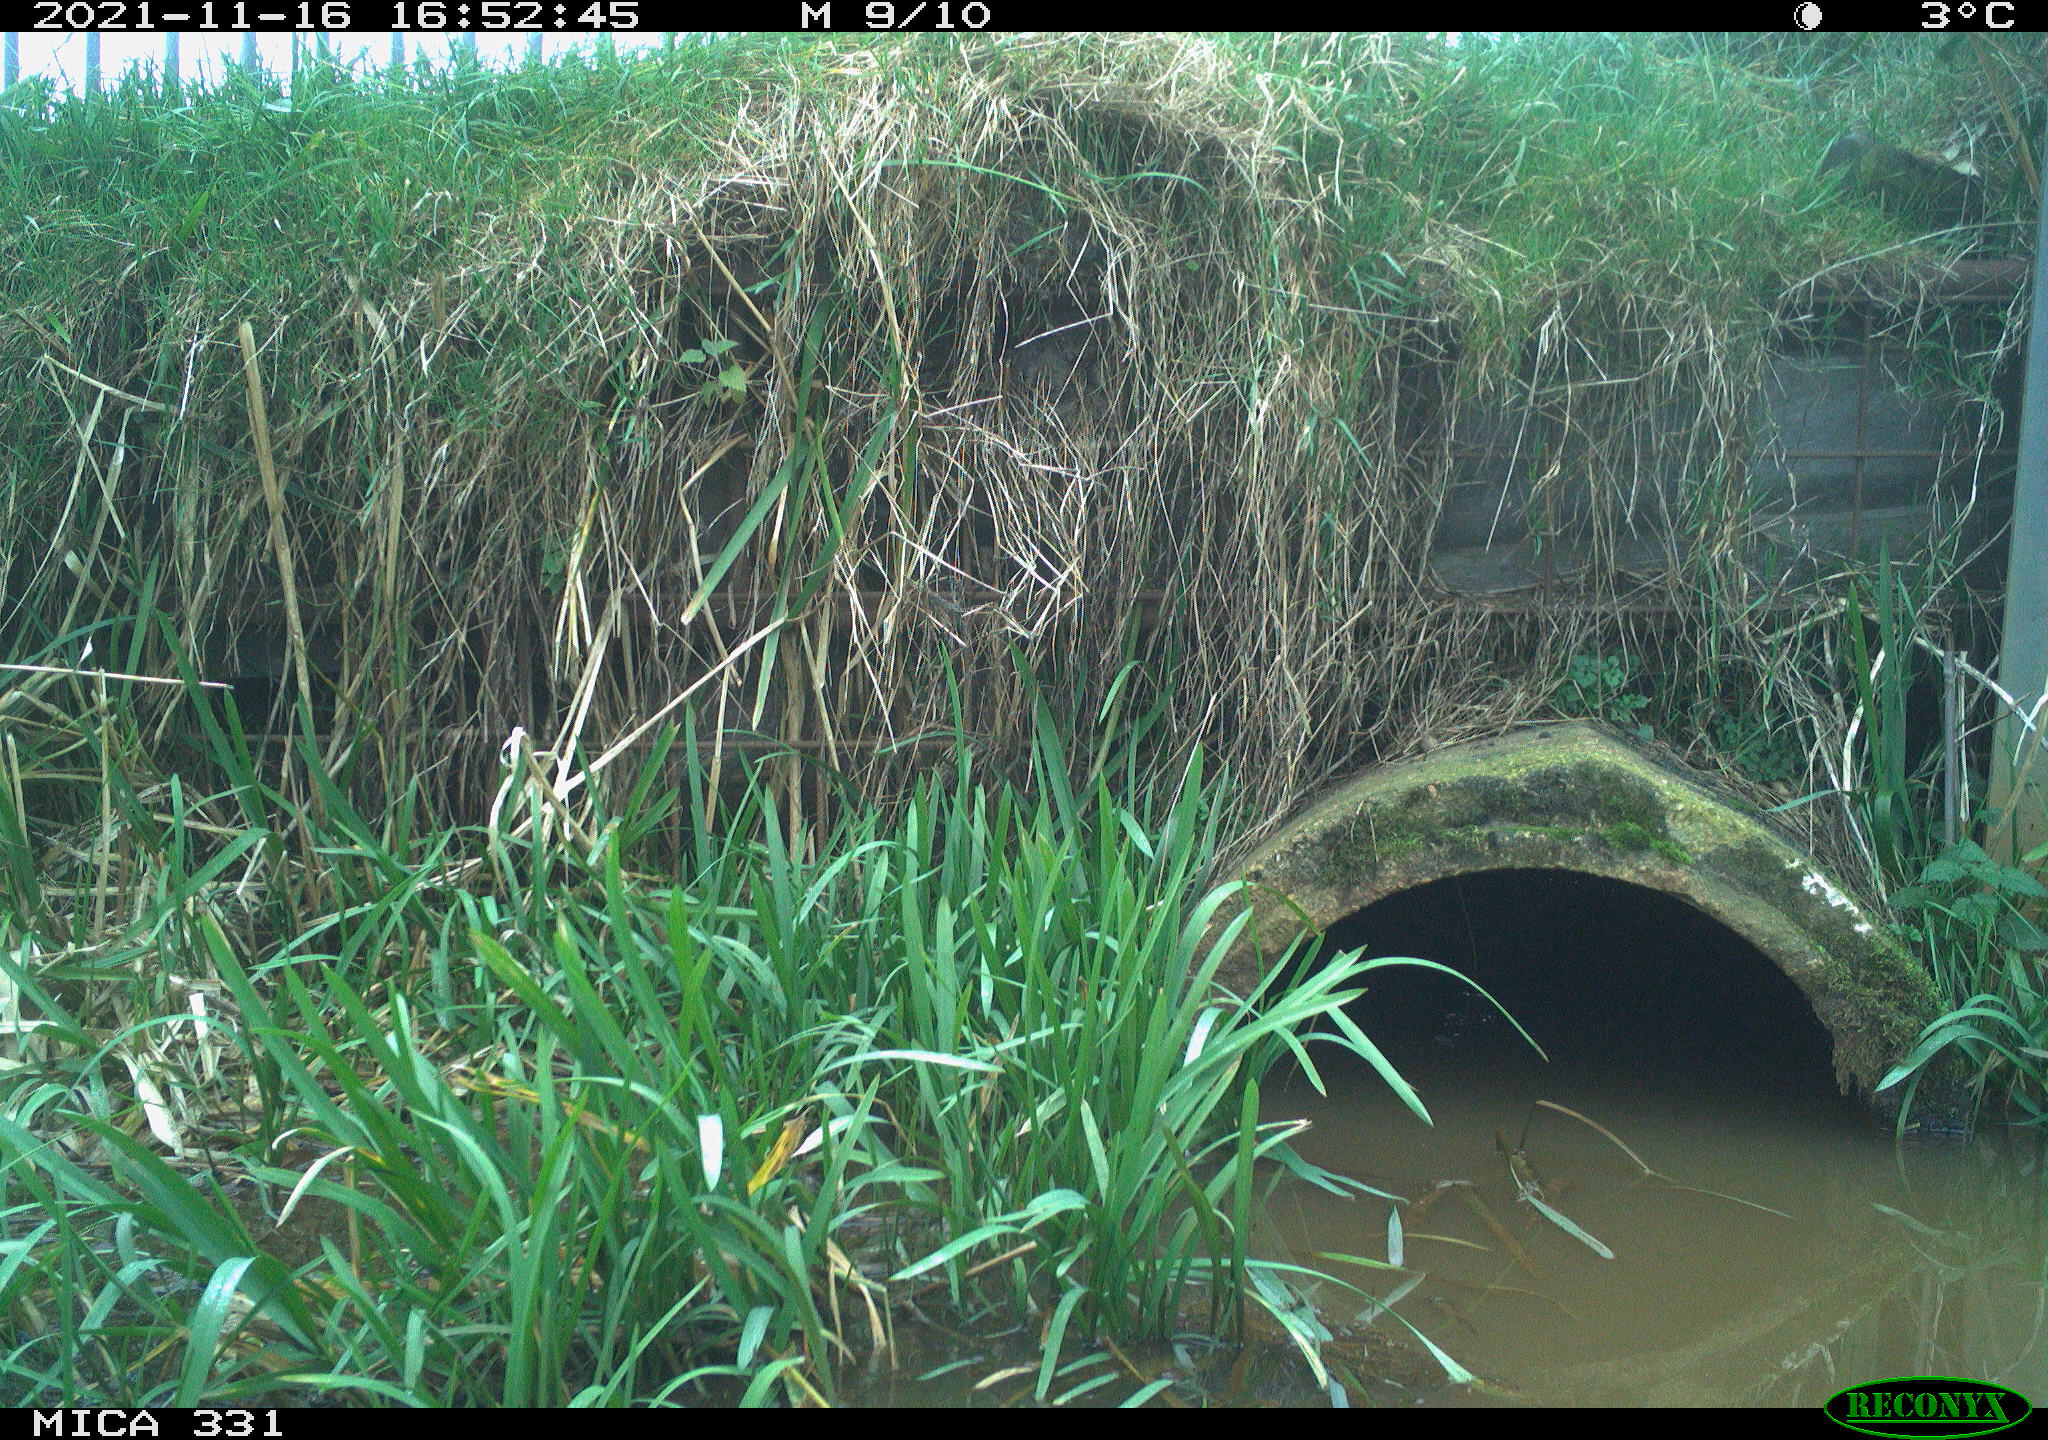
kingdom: Animalia
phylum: Chordata
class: Aves
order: Gruiformes
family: Rallidae
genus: Gallinula
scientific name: Gallinula chloropus
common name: Common moorhen
